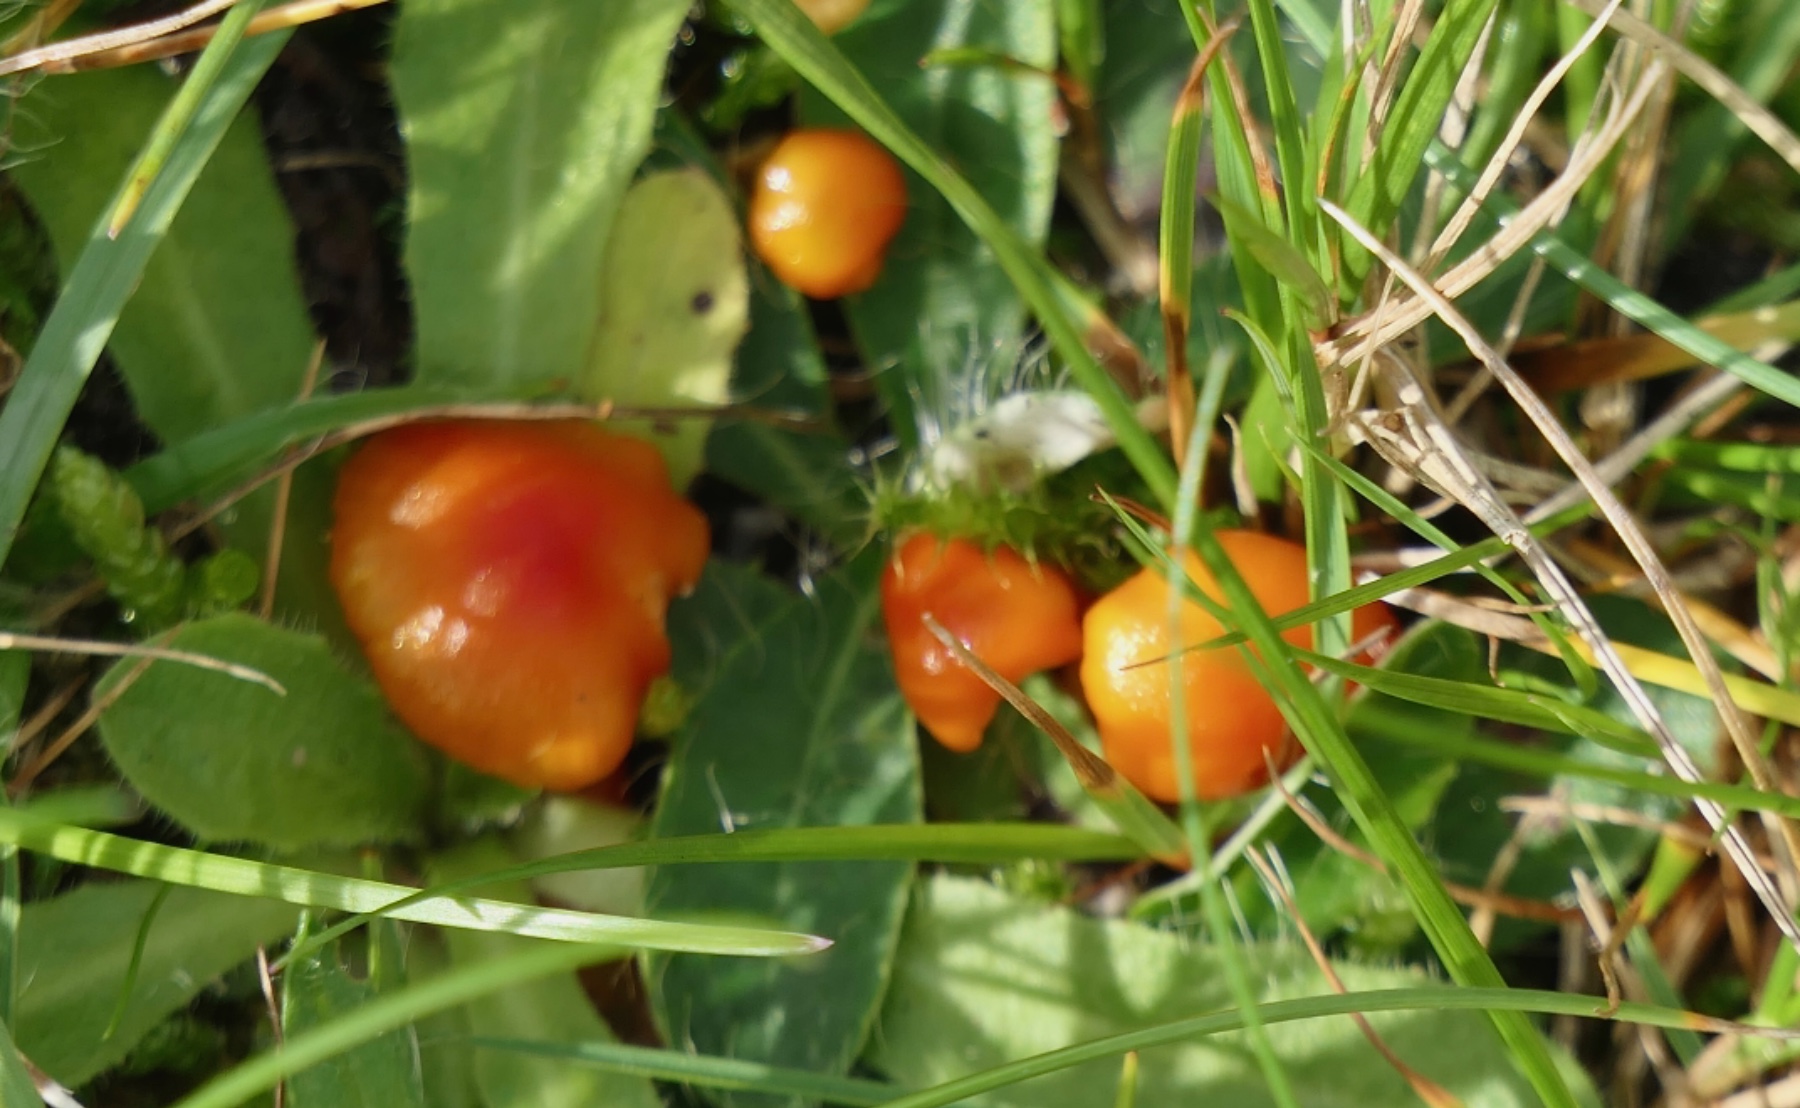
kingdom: Fungi
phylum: Basidiomycota
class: Agaricomycetes
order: Agaricales
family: Hygrophoraceae
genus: Hygrocybe
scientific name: Hygrocybe insipida
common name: liden vokshat
